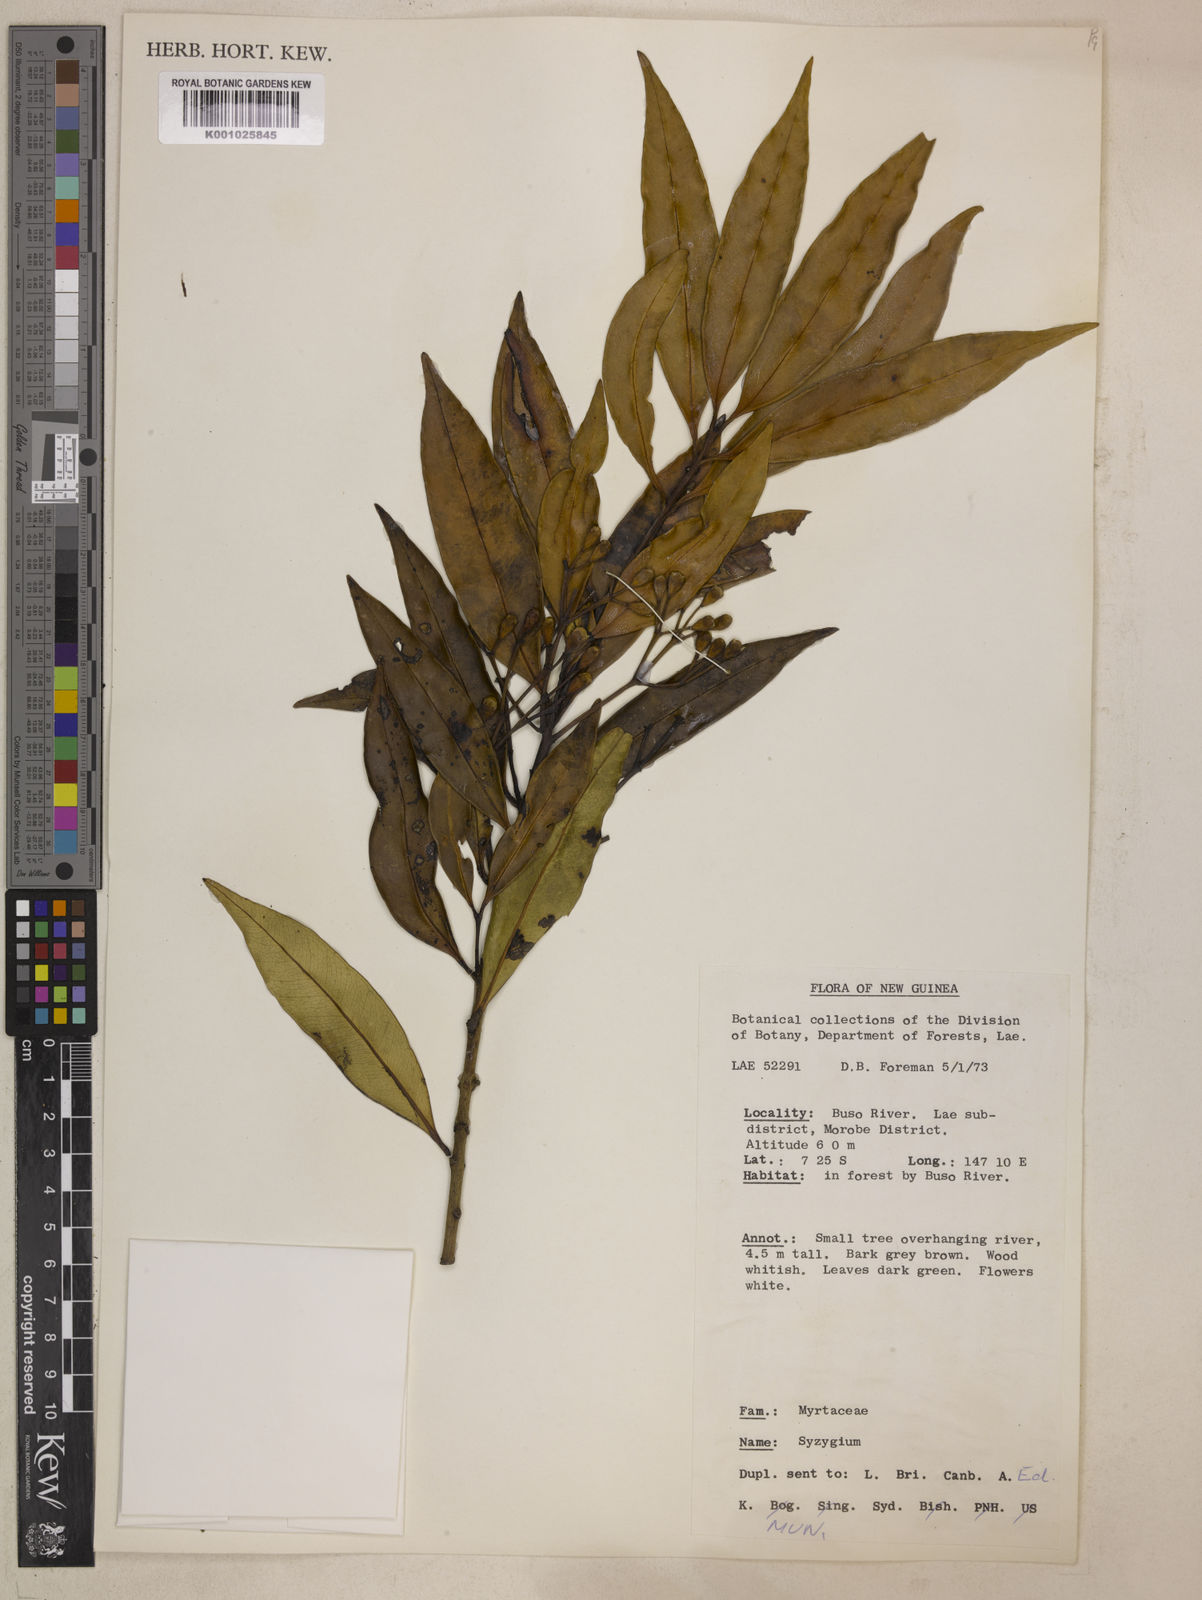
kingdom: Plantae
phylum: Tracheophyta
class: Magnoliopsida
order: Myrtales
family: Myrtaceae
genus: Syzygium
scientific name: Syzygium salicinum
